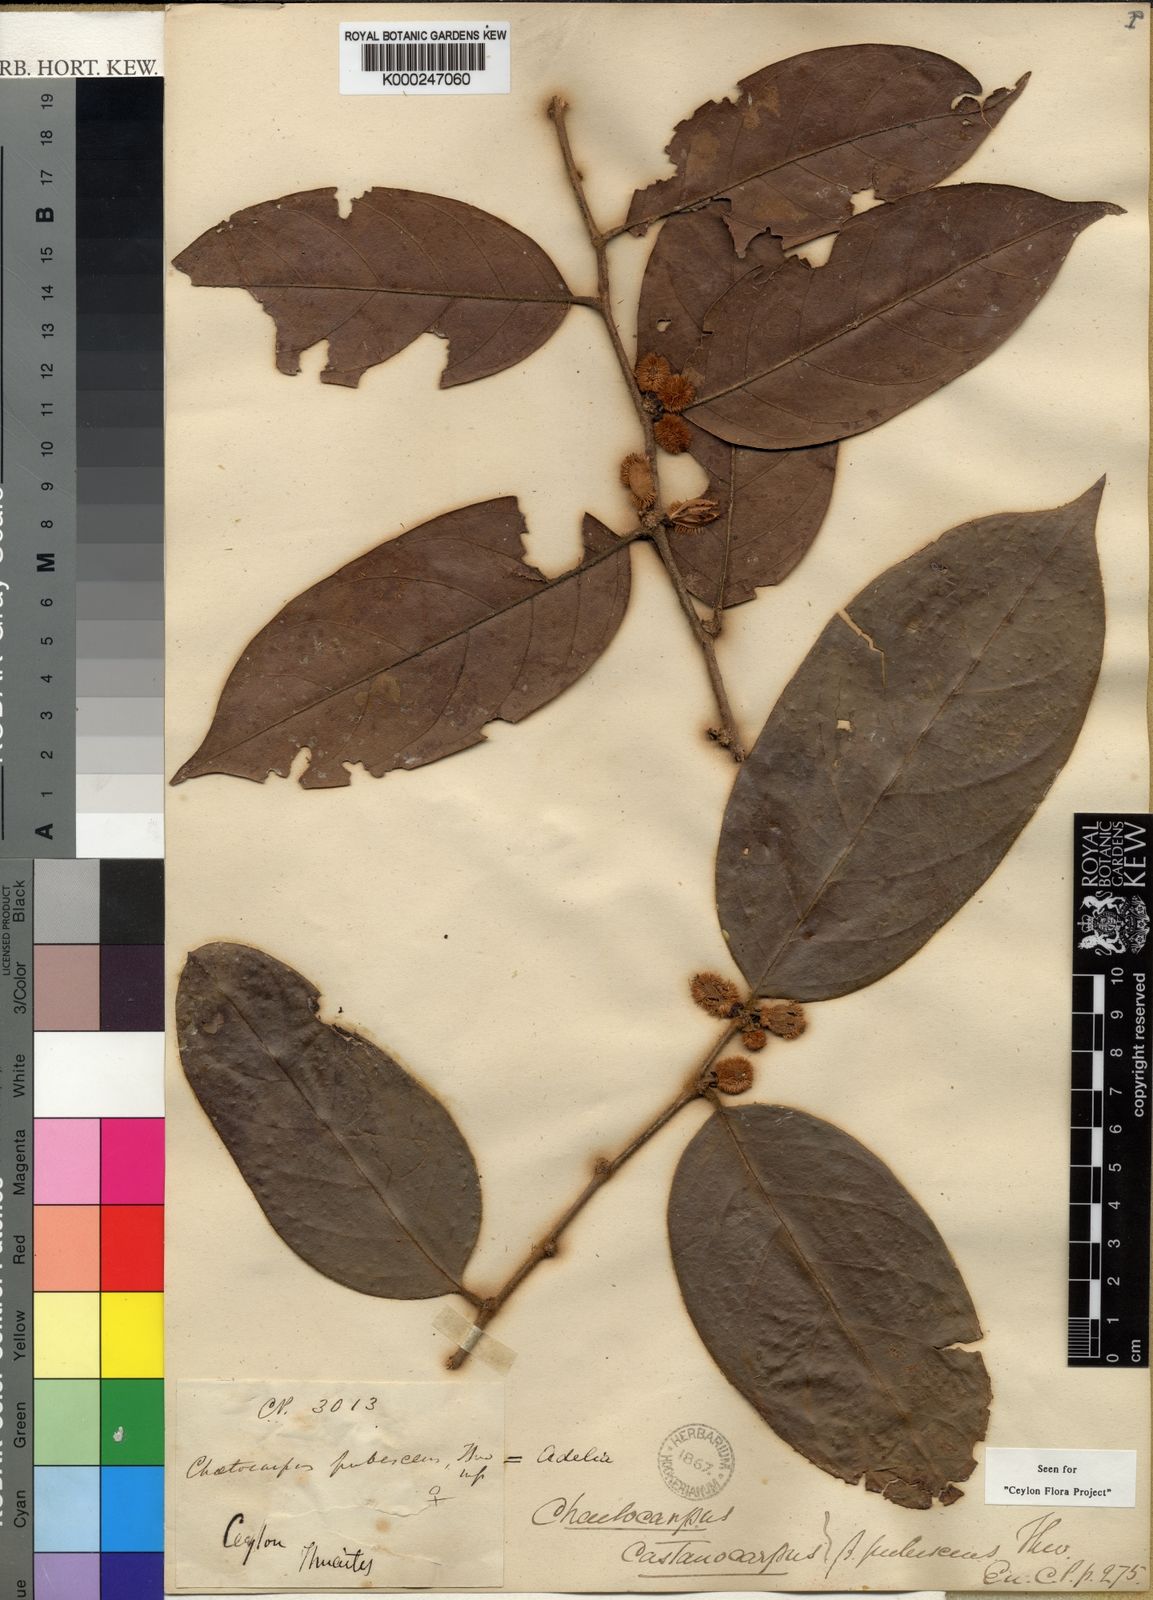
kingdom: Plantae
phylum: Tracheophyta
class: Magnoliopsida
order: Malpighiales
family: Peraceae
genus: Chaetocarpus
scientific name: Chaetocarpus pubescens
